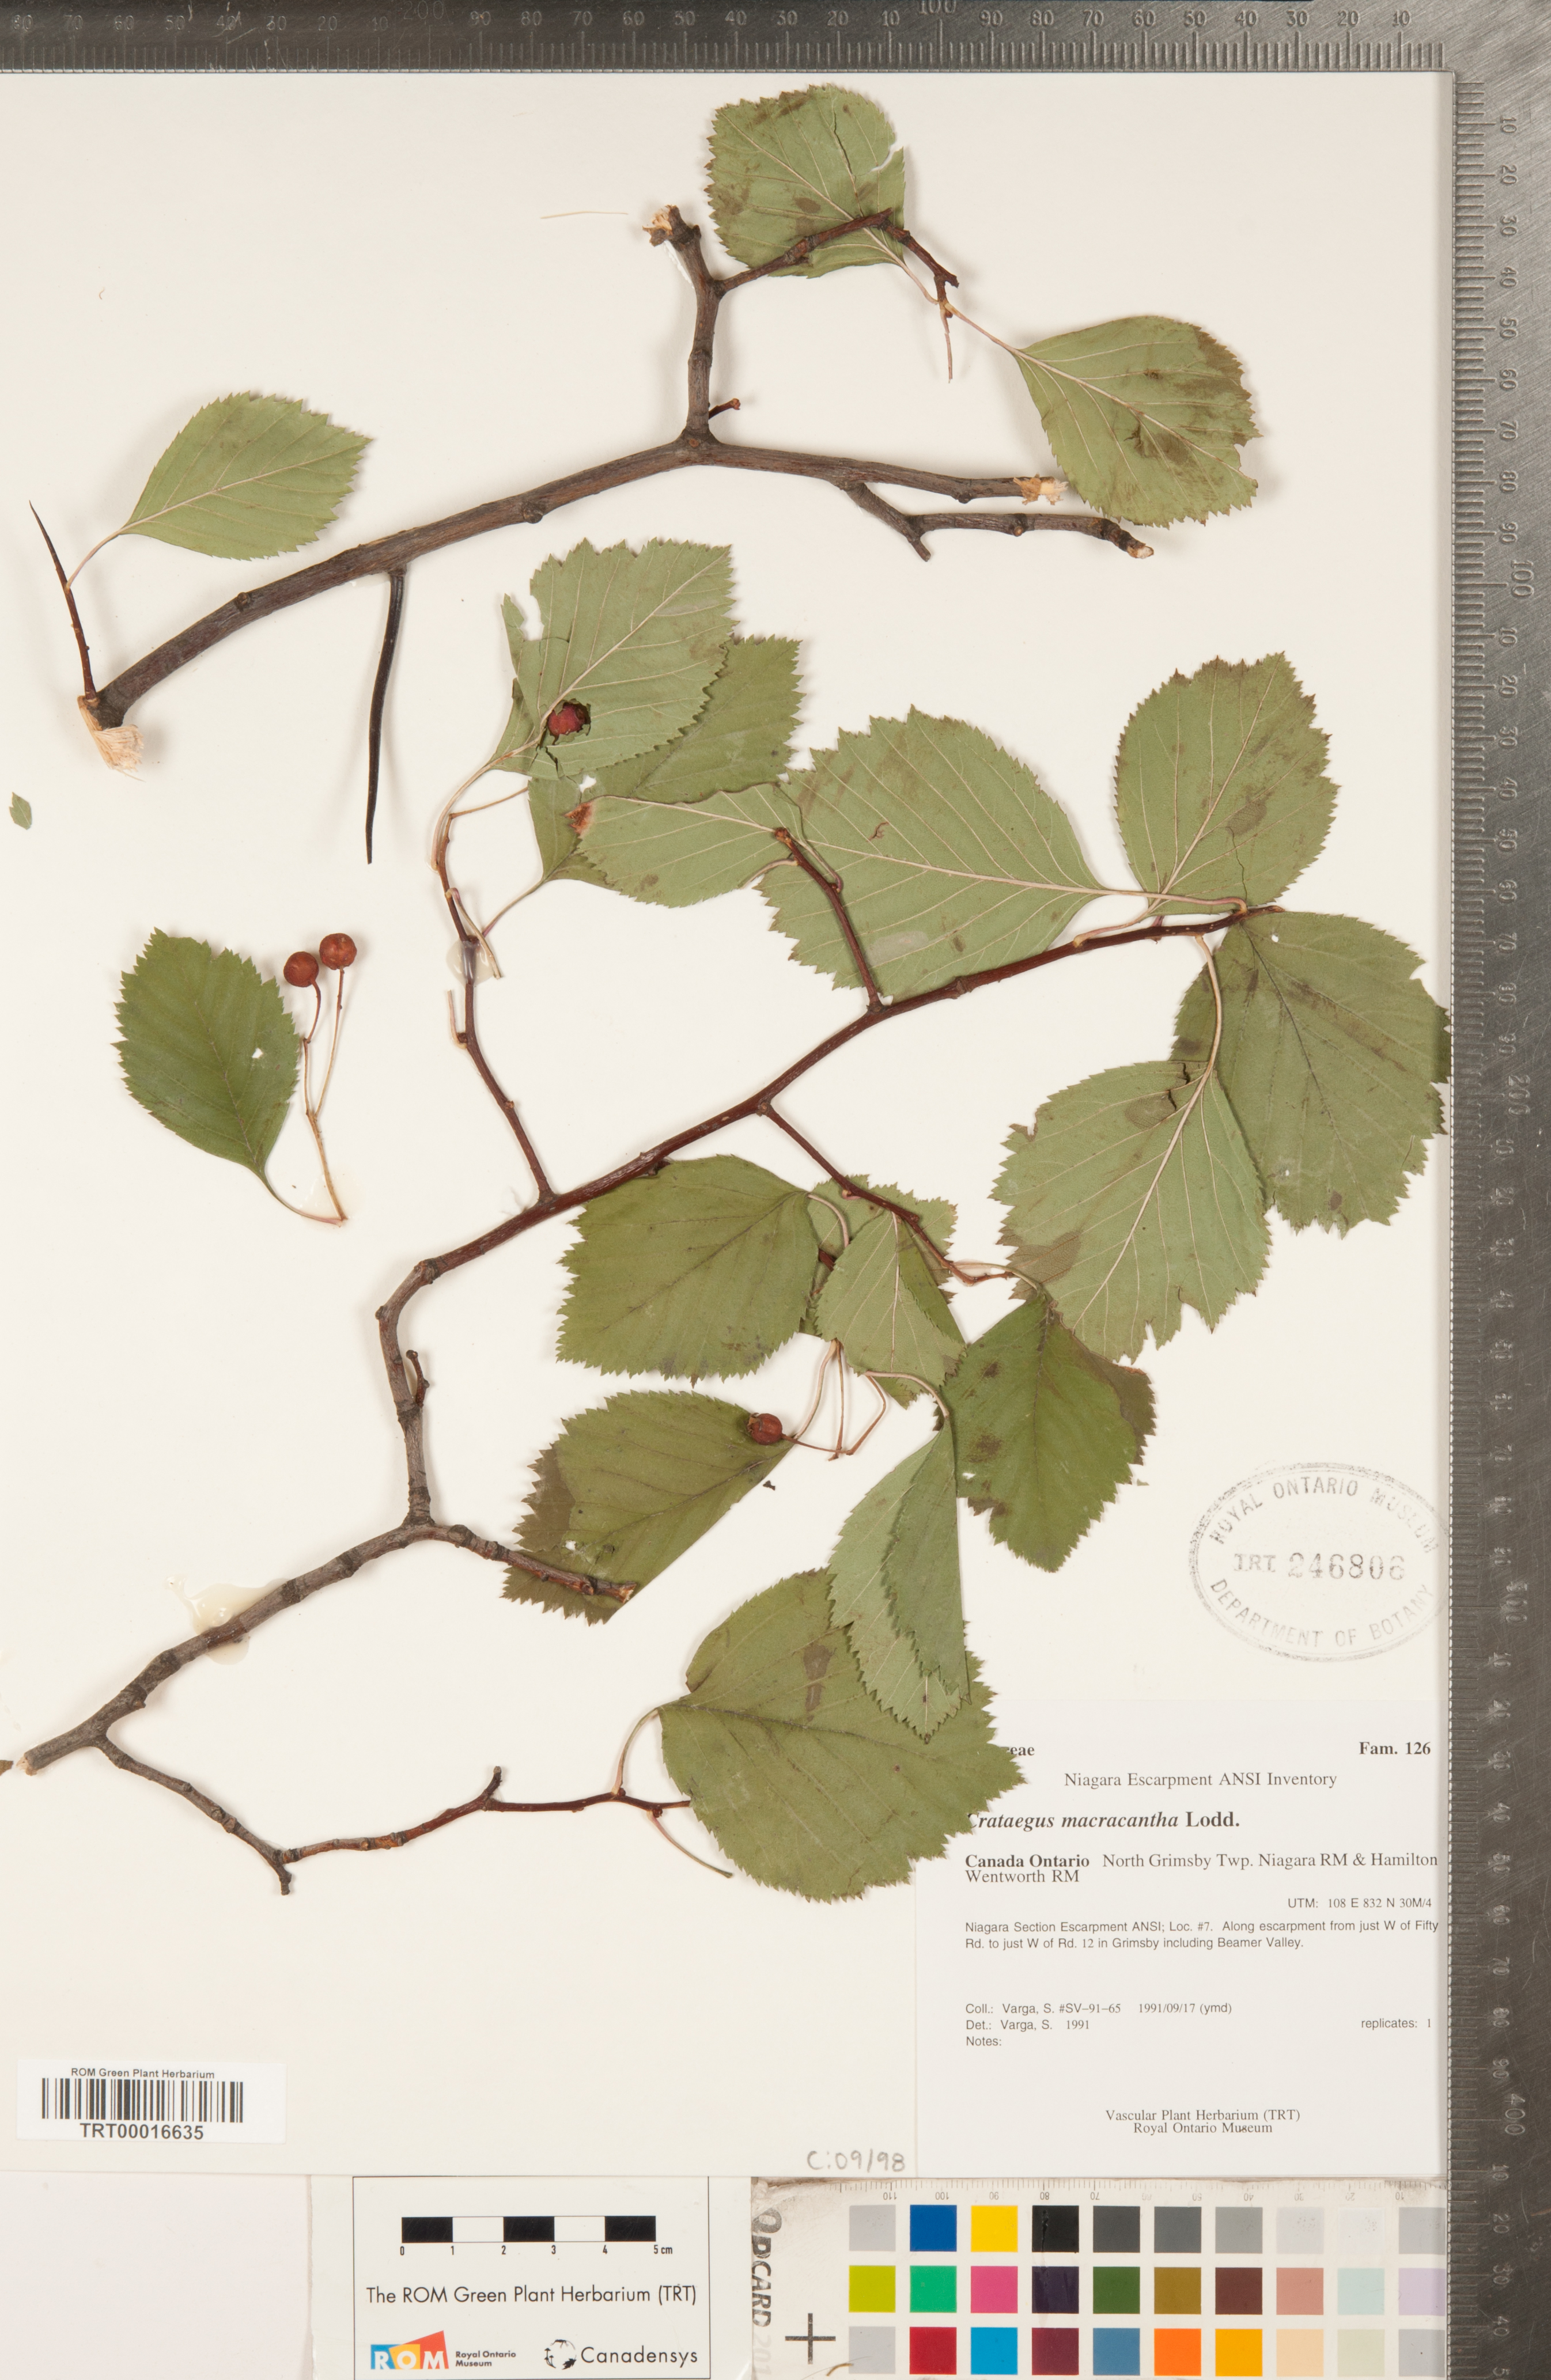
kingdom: Plantae
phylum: Tracheophyta
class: Magnoliopsida
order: Rosales
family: Rosaceae
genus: Crataegus
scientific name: Crataegus macracantha
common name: Large-thorn hawthorn
